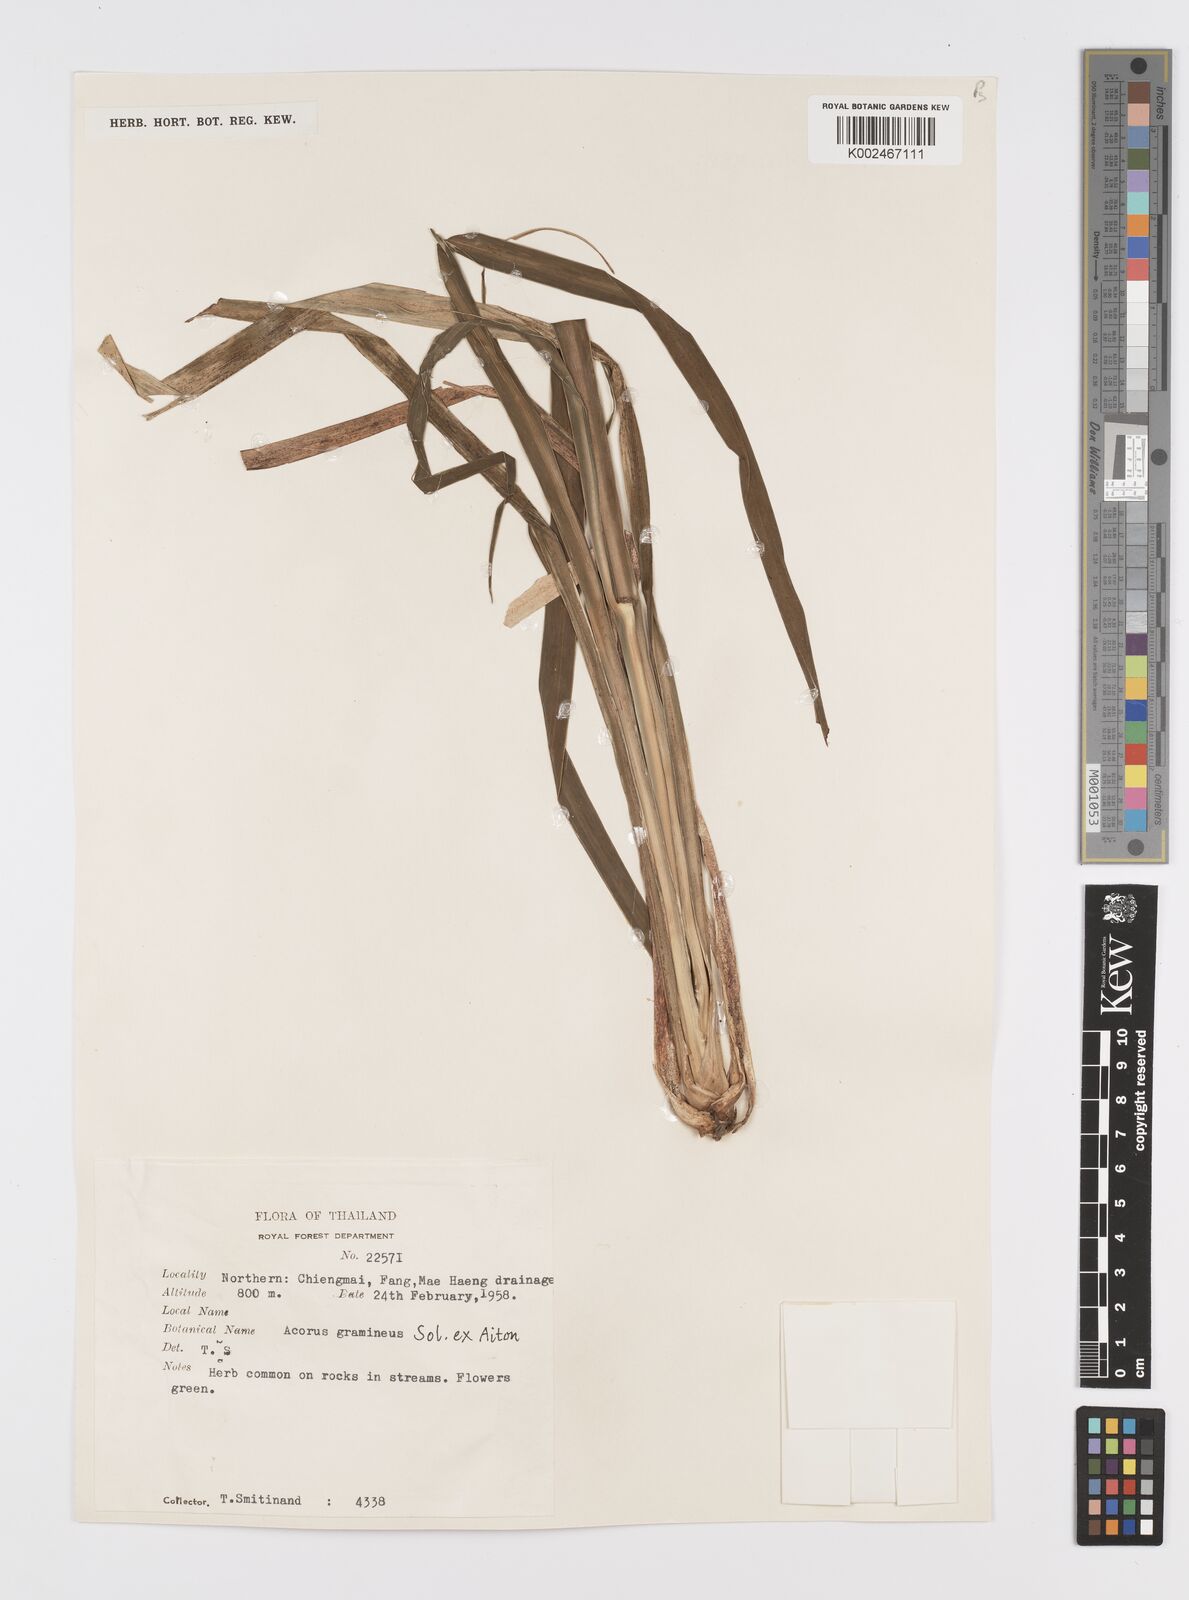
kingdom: Plantae
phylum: Tracheophyta
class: Liliopsida
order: Acorales
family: Acoraceae
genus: Acorus
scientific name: Acorus gramineus
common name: Slender sweet-flag
